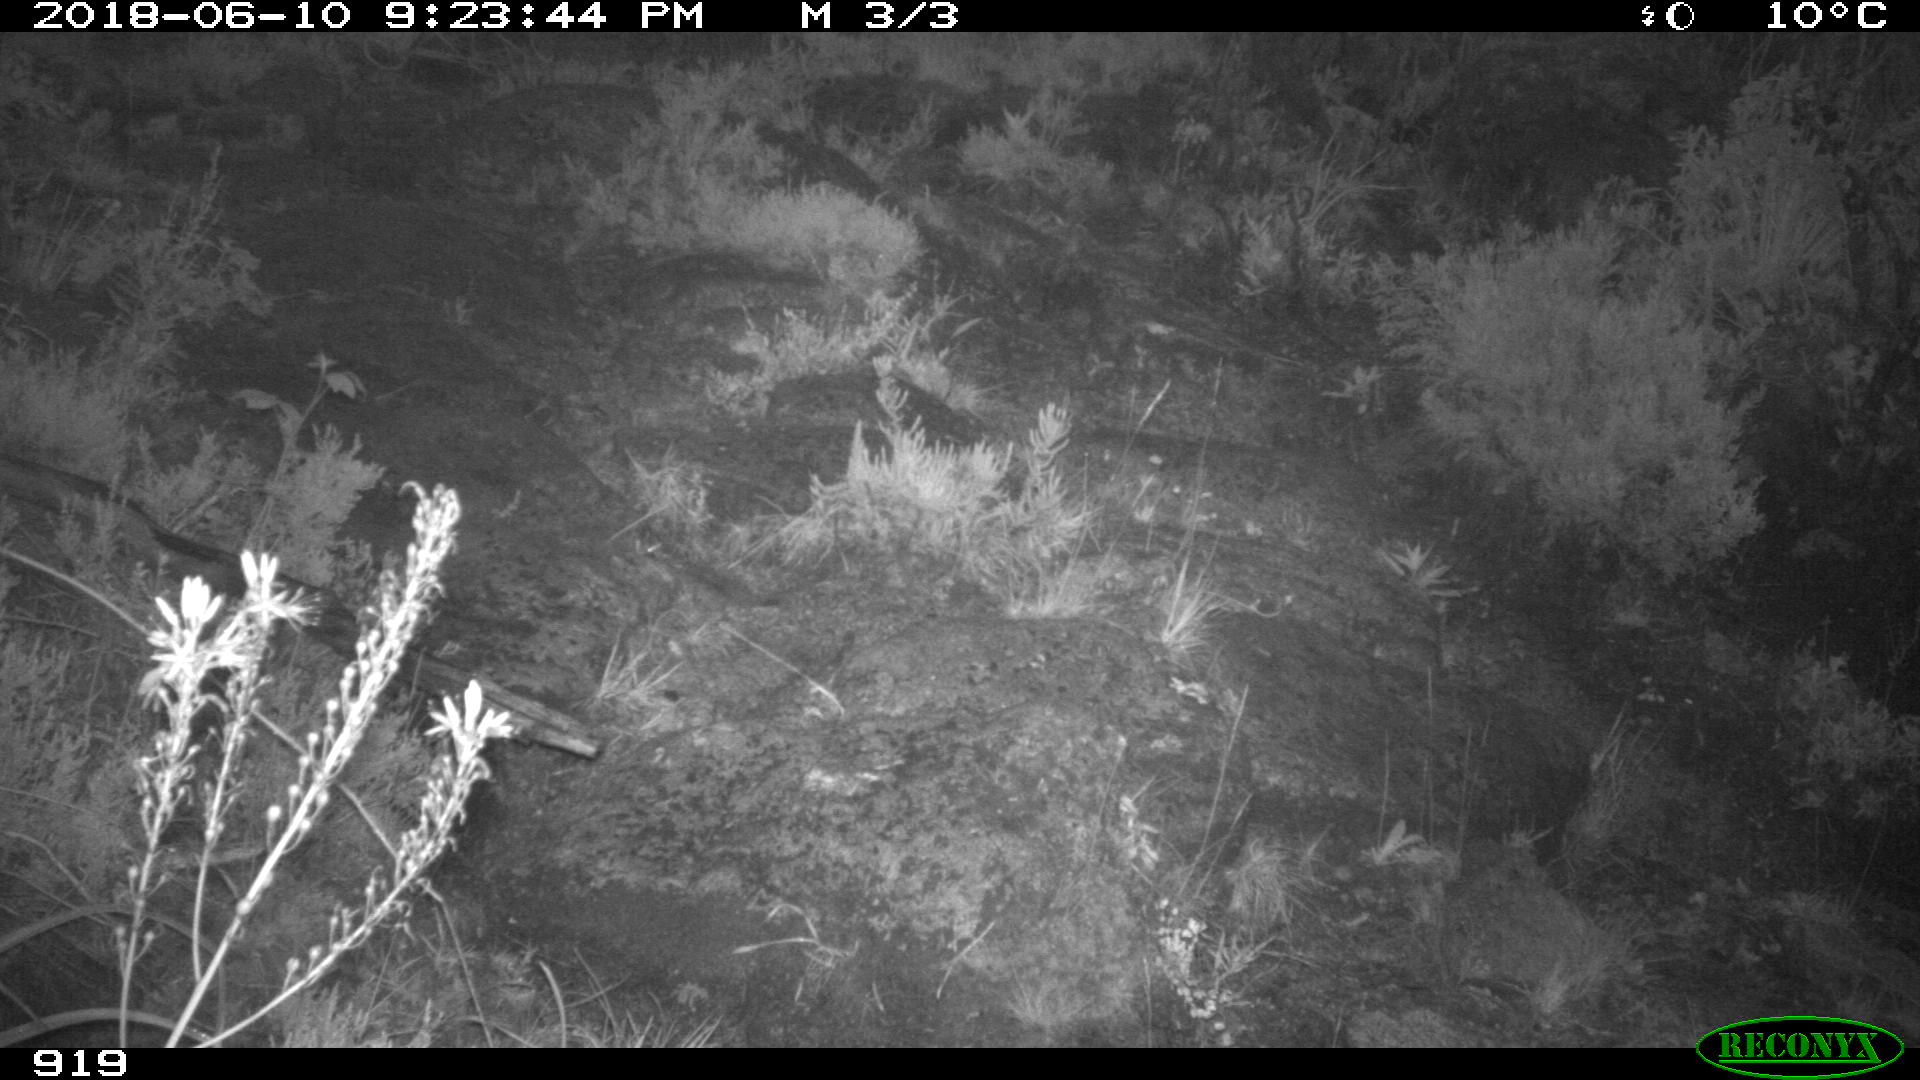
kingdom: Animalia
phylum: Chordata
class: Mammalia
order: Artiodactyla
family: Bovidae
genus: Bos
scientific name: Bos taurus
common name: Domesticated cattle
